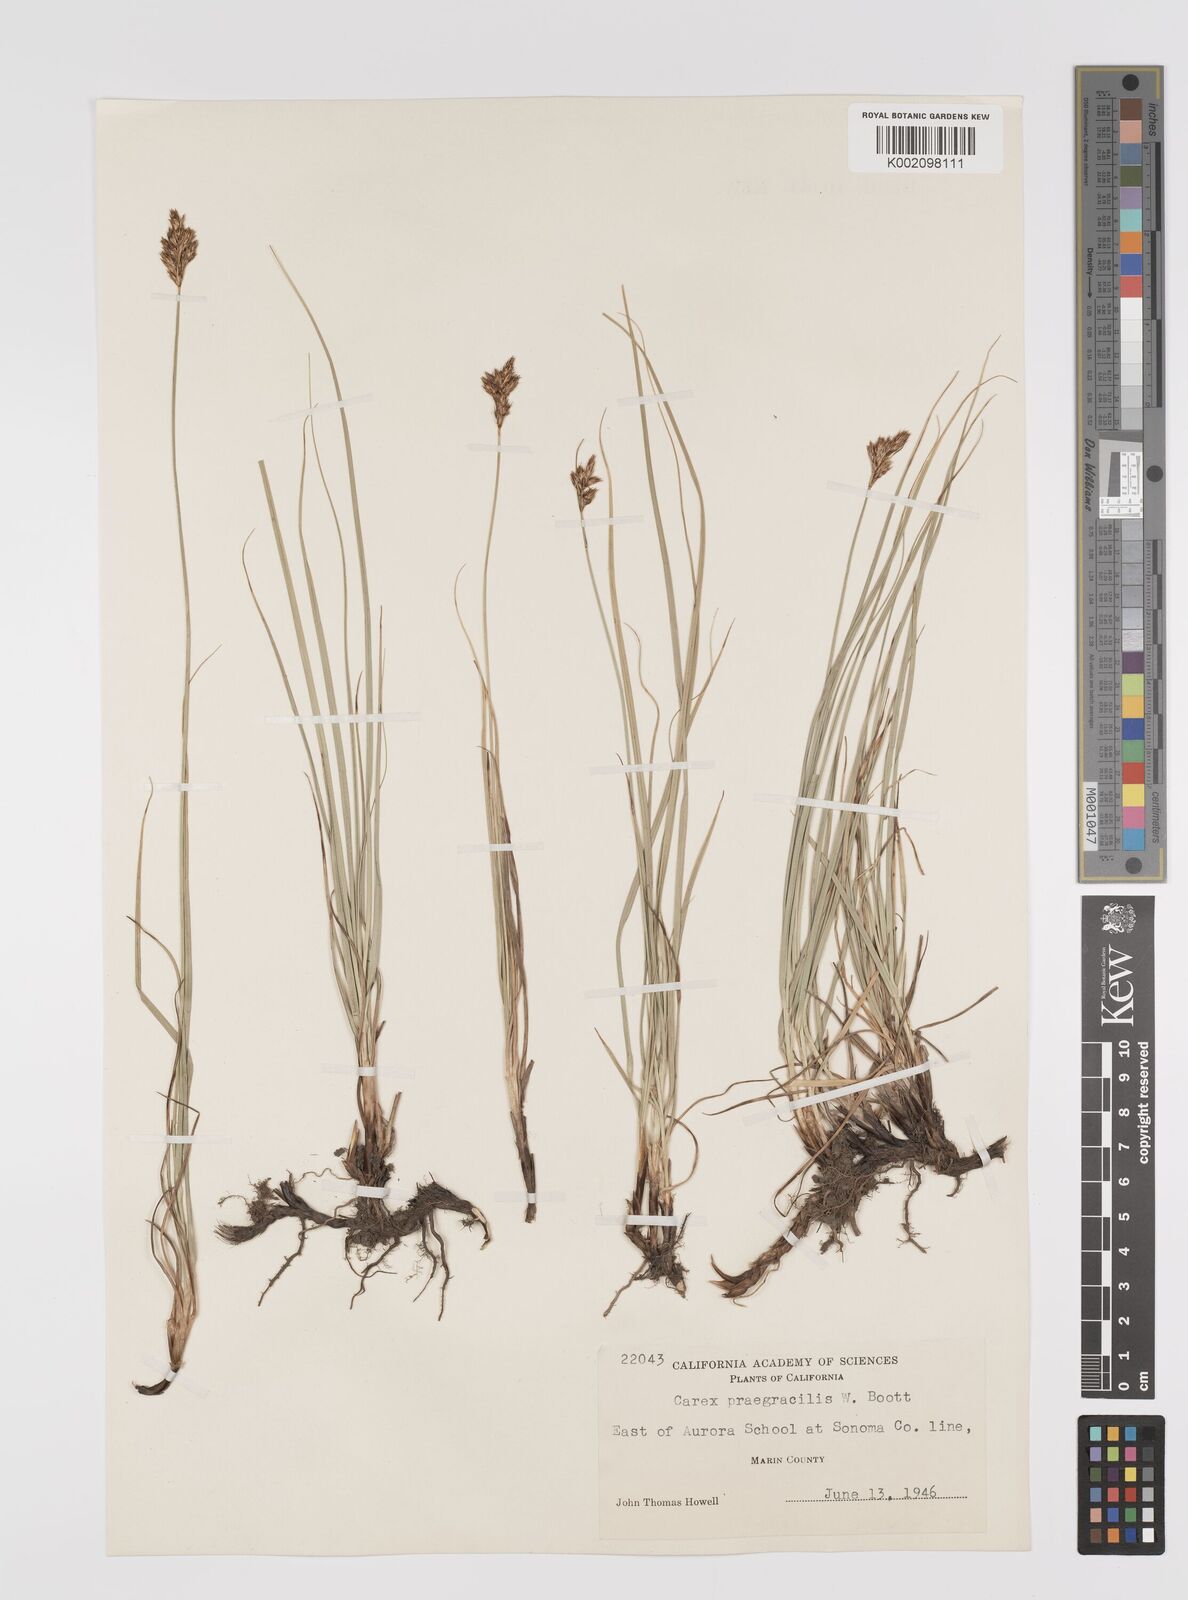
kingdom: Plantae
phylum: Tracheophyta
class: Liliopsida
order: Poales
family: Cyperaceae
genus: Carex
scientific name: Carex praegracilis
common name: Black creeper sedge
